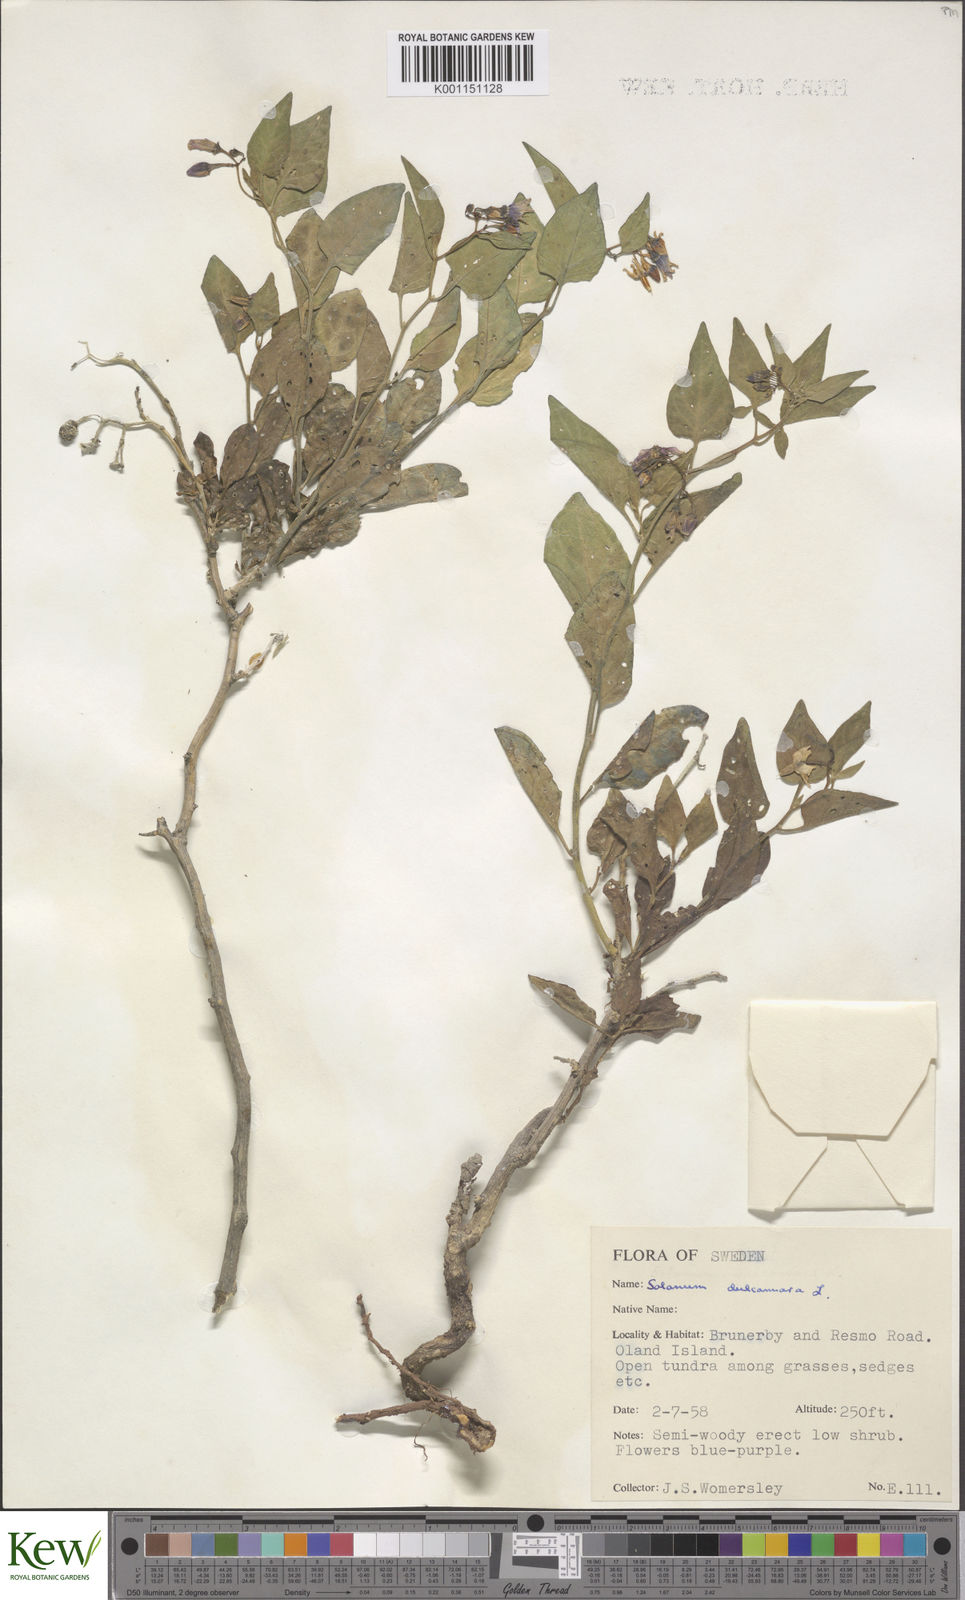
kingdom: Plantae
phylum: Tracheophyta
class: Magnoliopsida
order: Solanales
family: Solanaceae
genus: Solanum
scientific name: Solanum dulcamara
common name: Climbing nightshade
